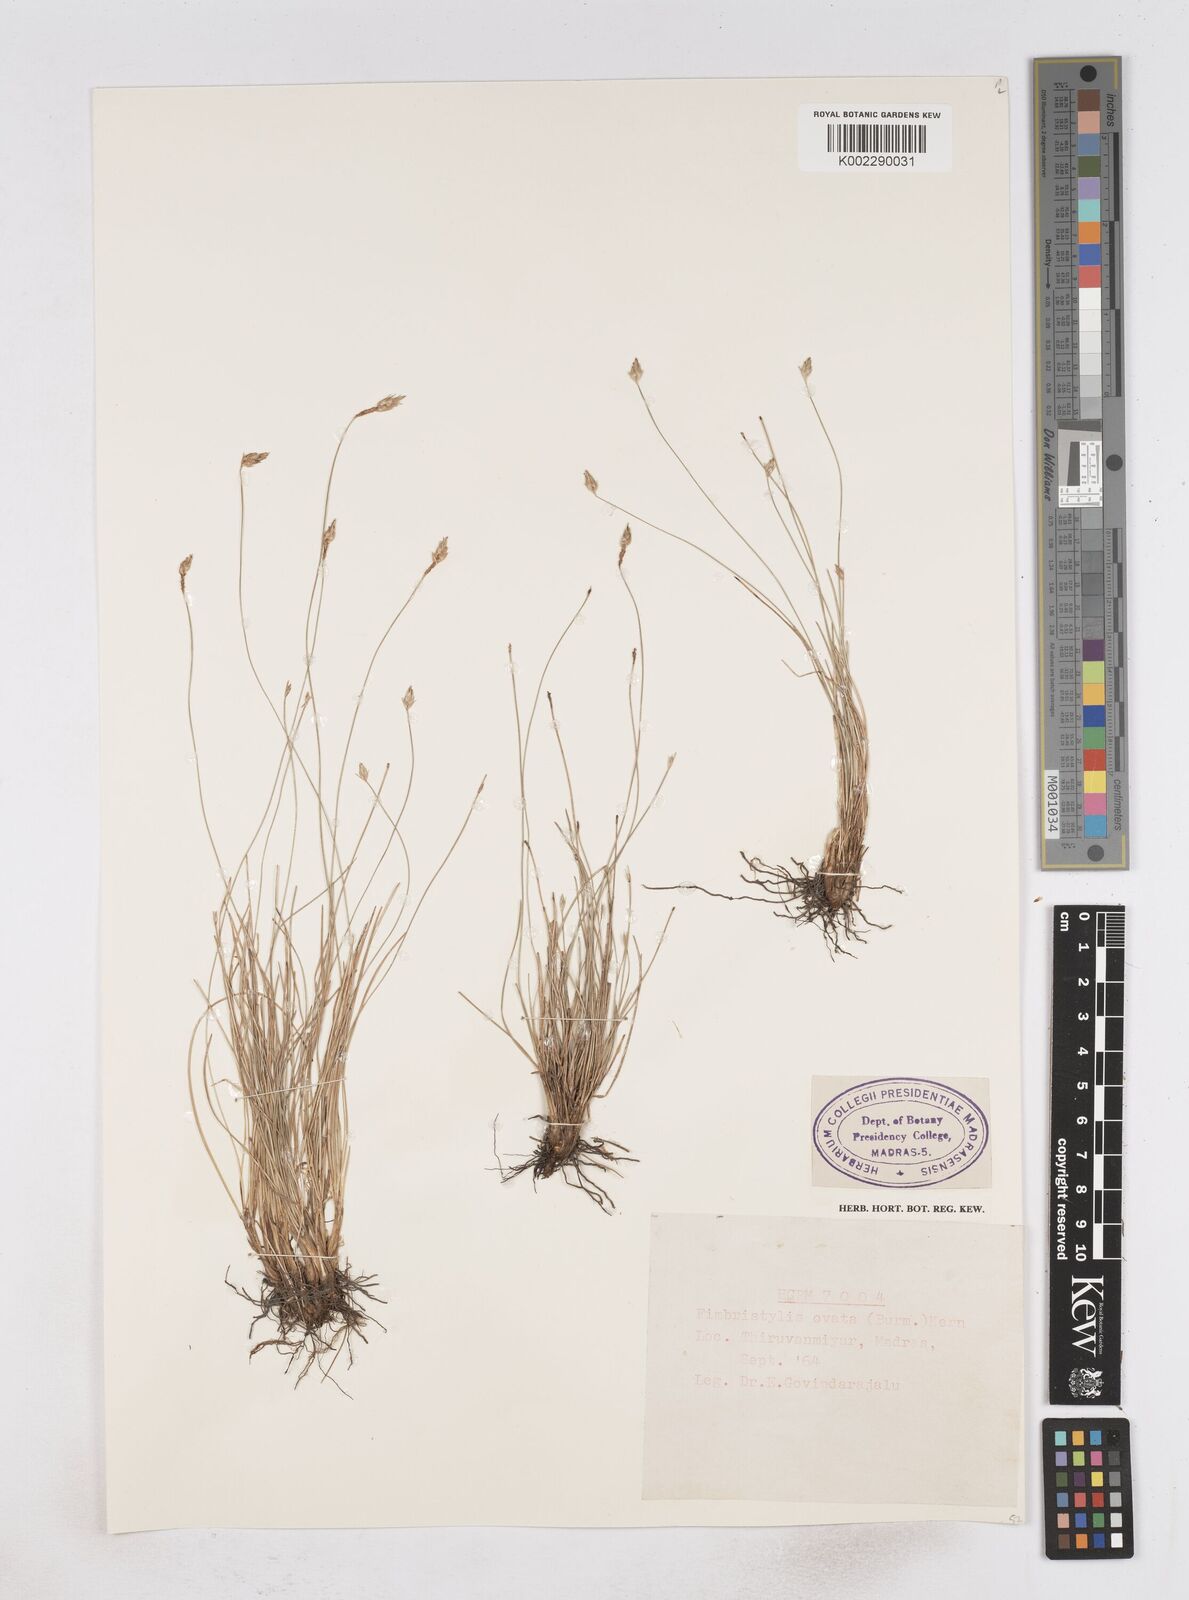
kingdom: Plantae
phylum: Tracheophyta
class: Liliopsida
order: Poales
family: Cyperaceae
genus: Abildgaardia
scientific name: Abildgaardia ovata
